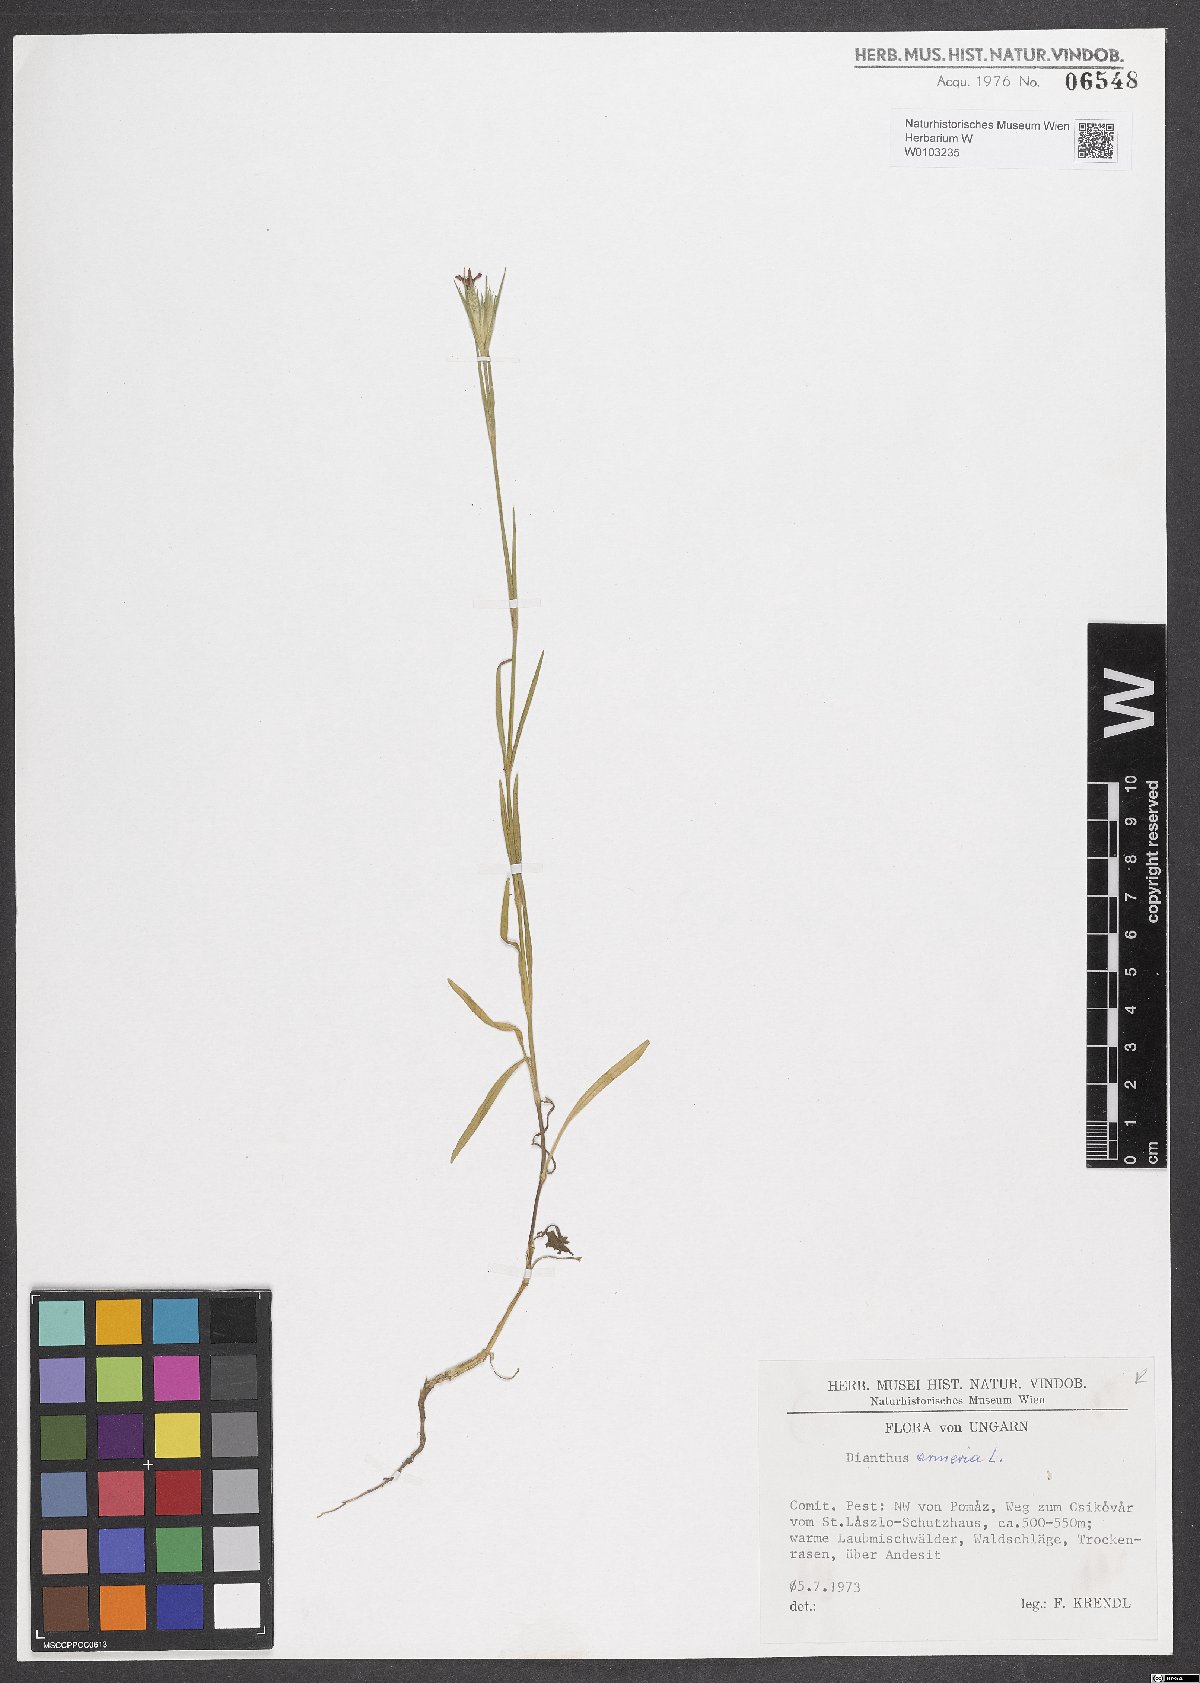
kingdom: Plantae
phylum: Tracheophyta
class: Magnoliopsida
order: Caryophyllales
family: Caryophyllaceae
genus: Dianthus
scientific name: Dianthus armeria
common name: Deptford pink
